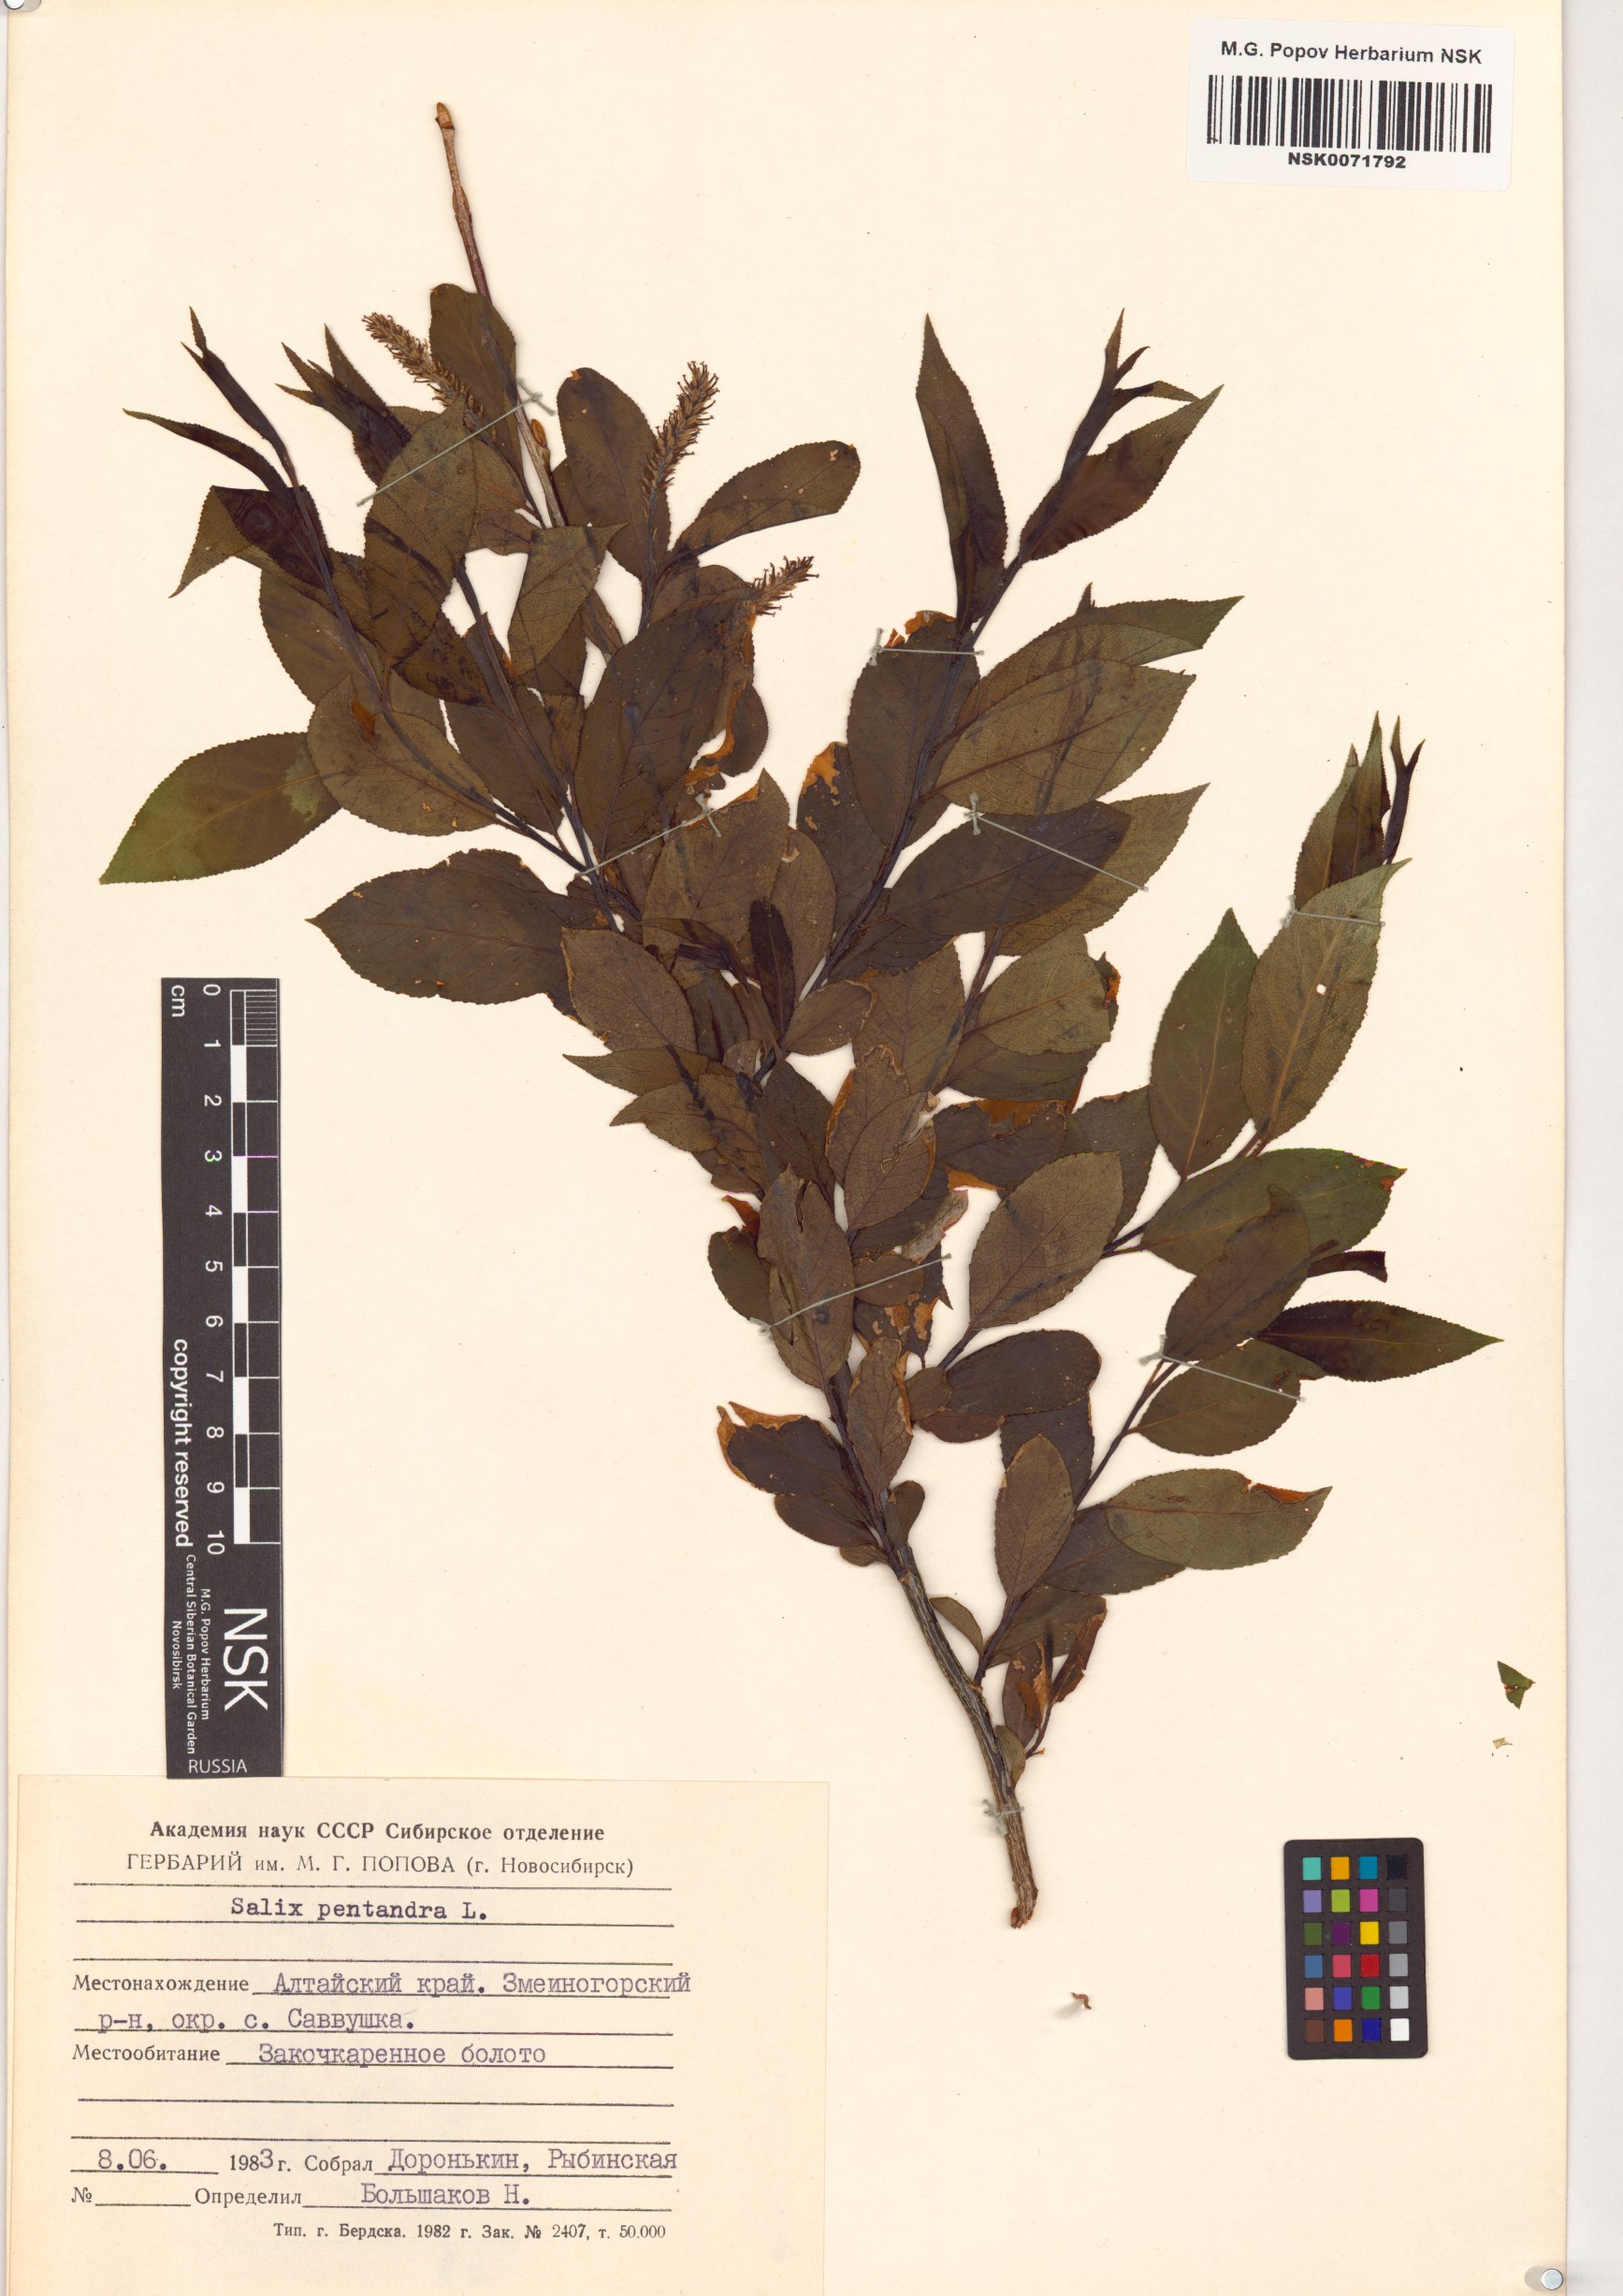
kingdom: Plantae
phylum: Tracheophyta
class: Magnoliopsida
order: Malpighiales
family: Salicaceae
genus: Salix
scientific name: Salix pentandra
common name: Bay willow
